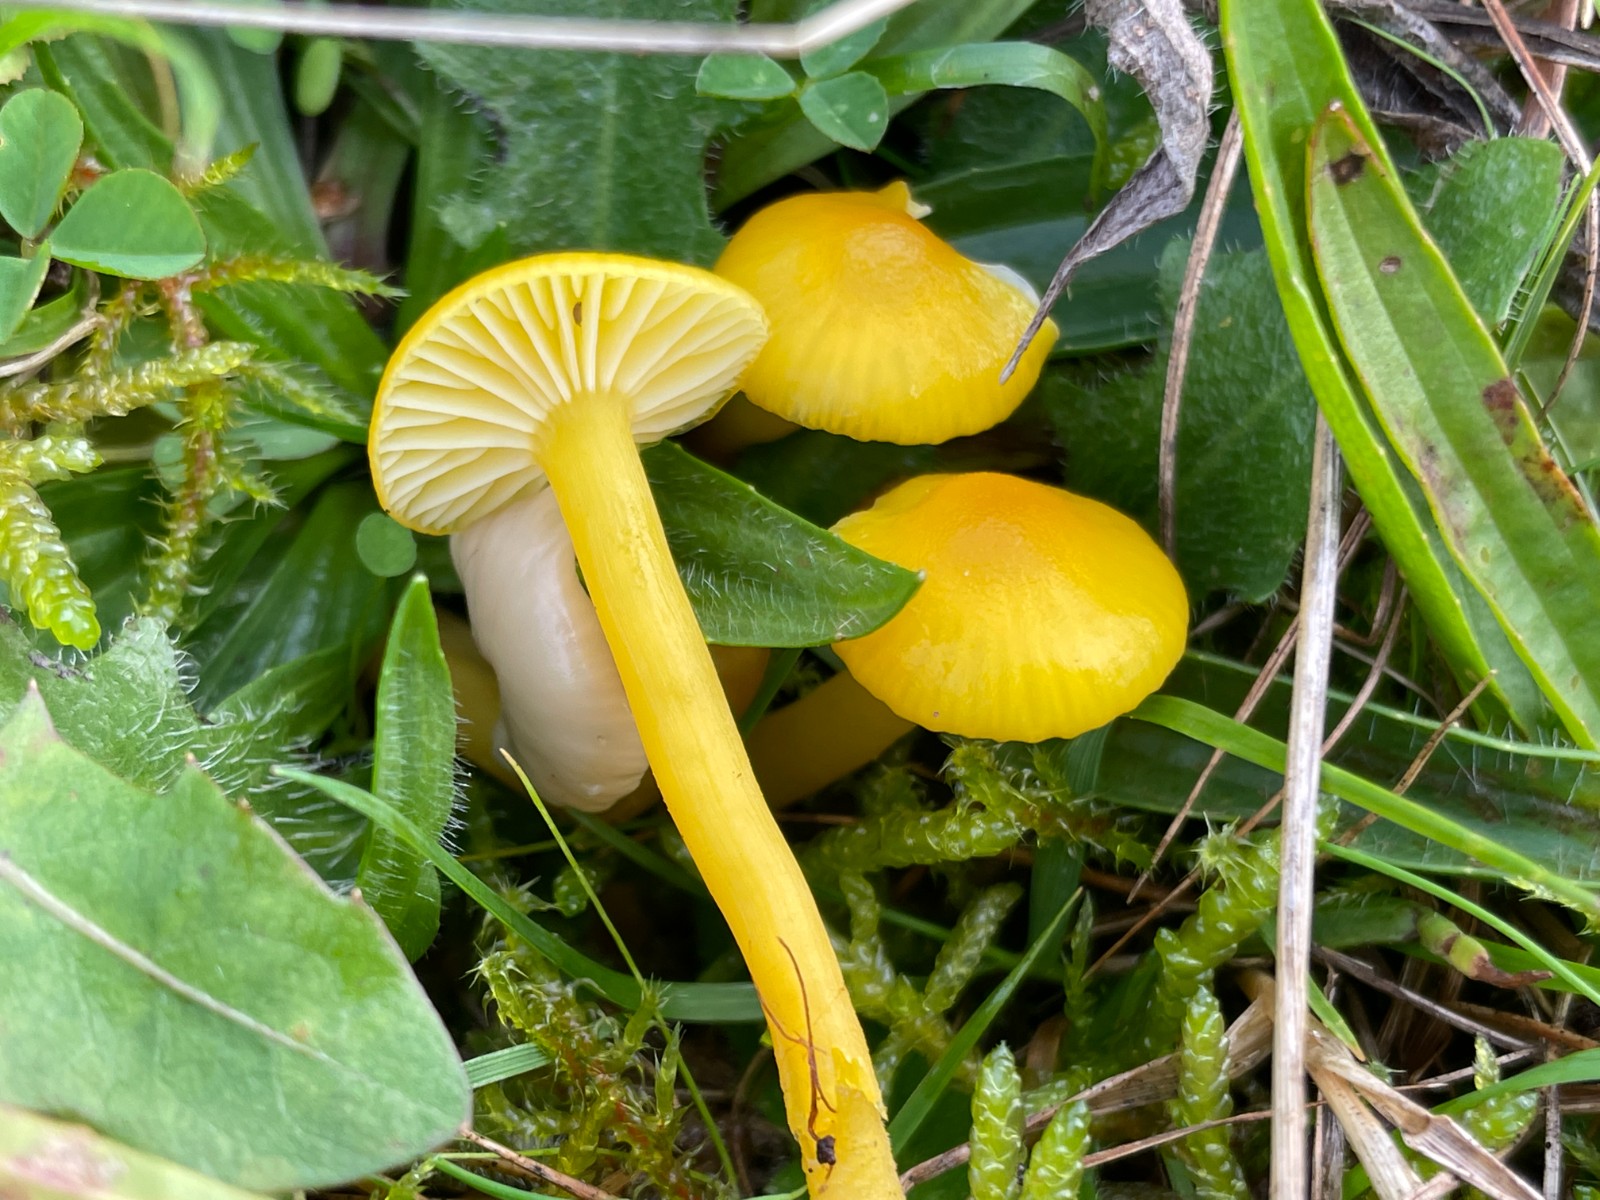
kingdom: Fungi
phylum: Basidiomycota
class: Agaricomycetes
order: Agaricales
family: Hygrophoraceae
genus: Hygrocybe
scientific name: Hygrocybe ceracea
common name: voksgul vokshat
